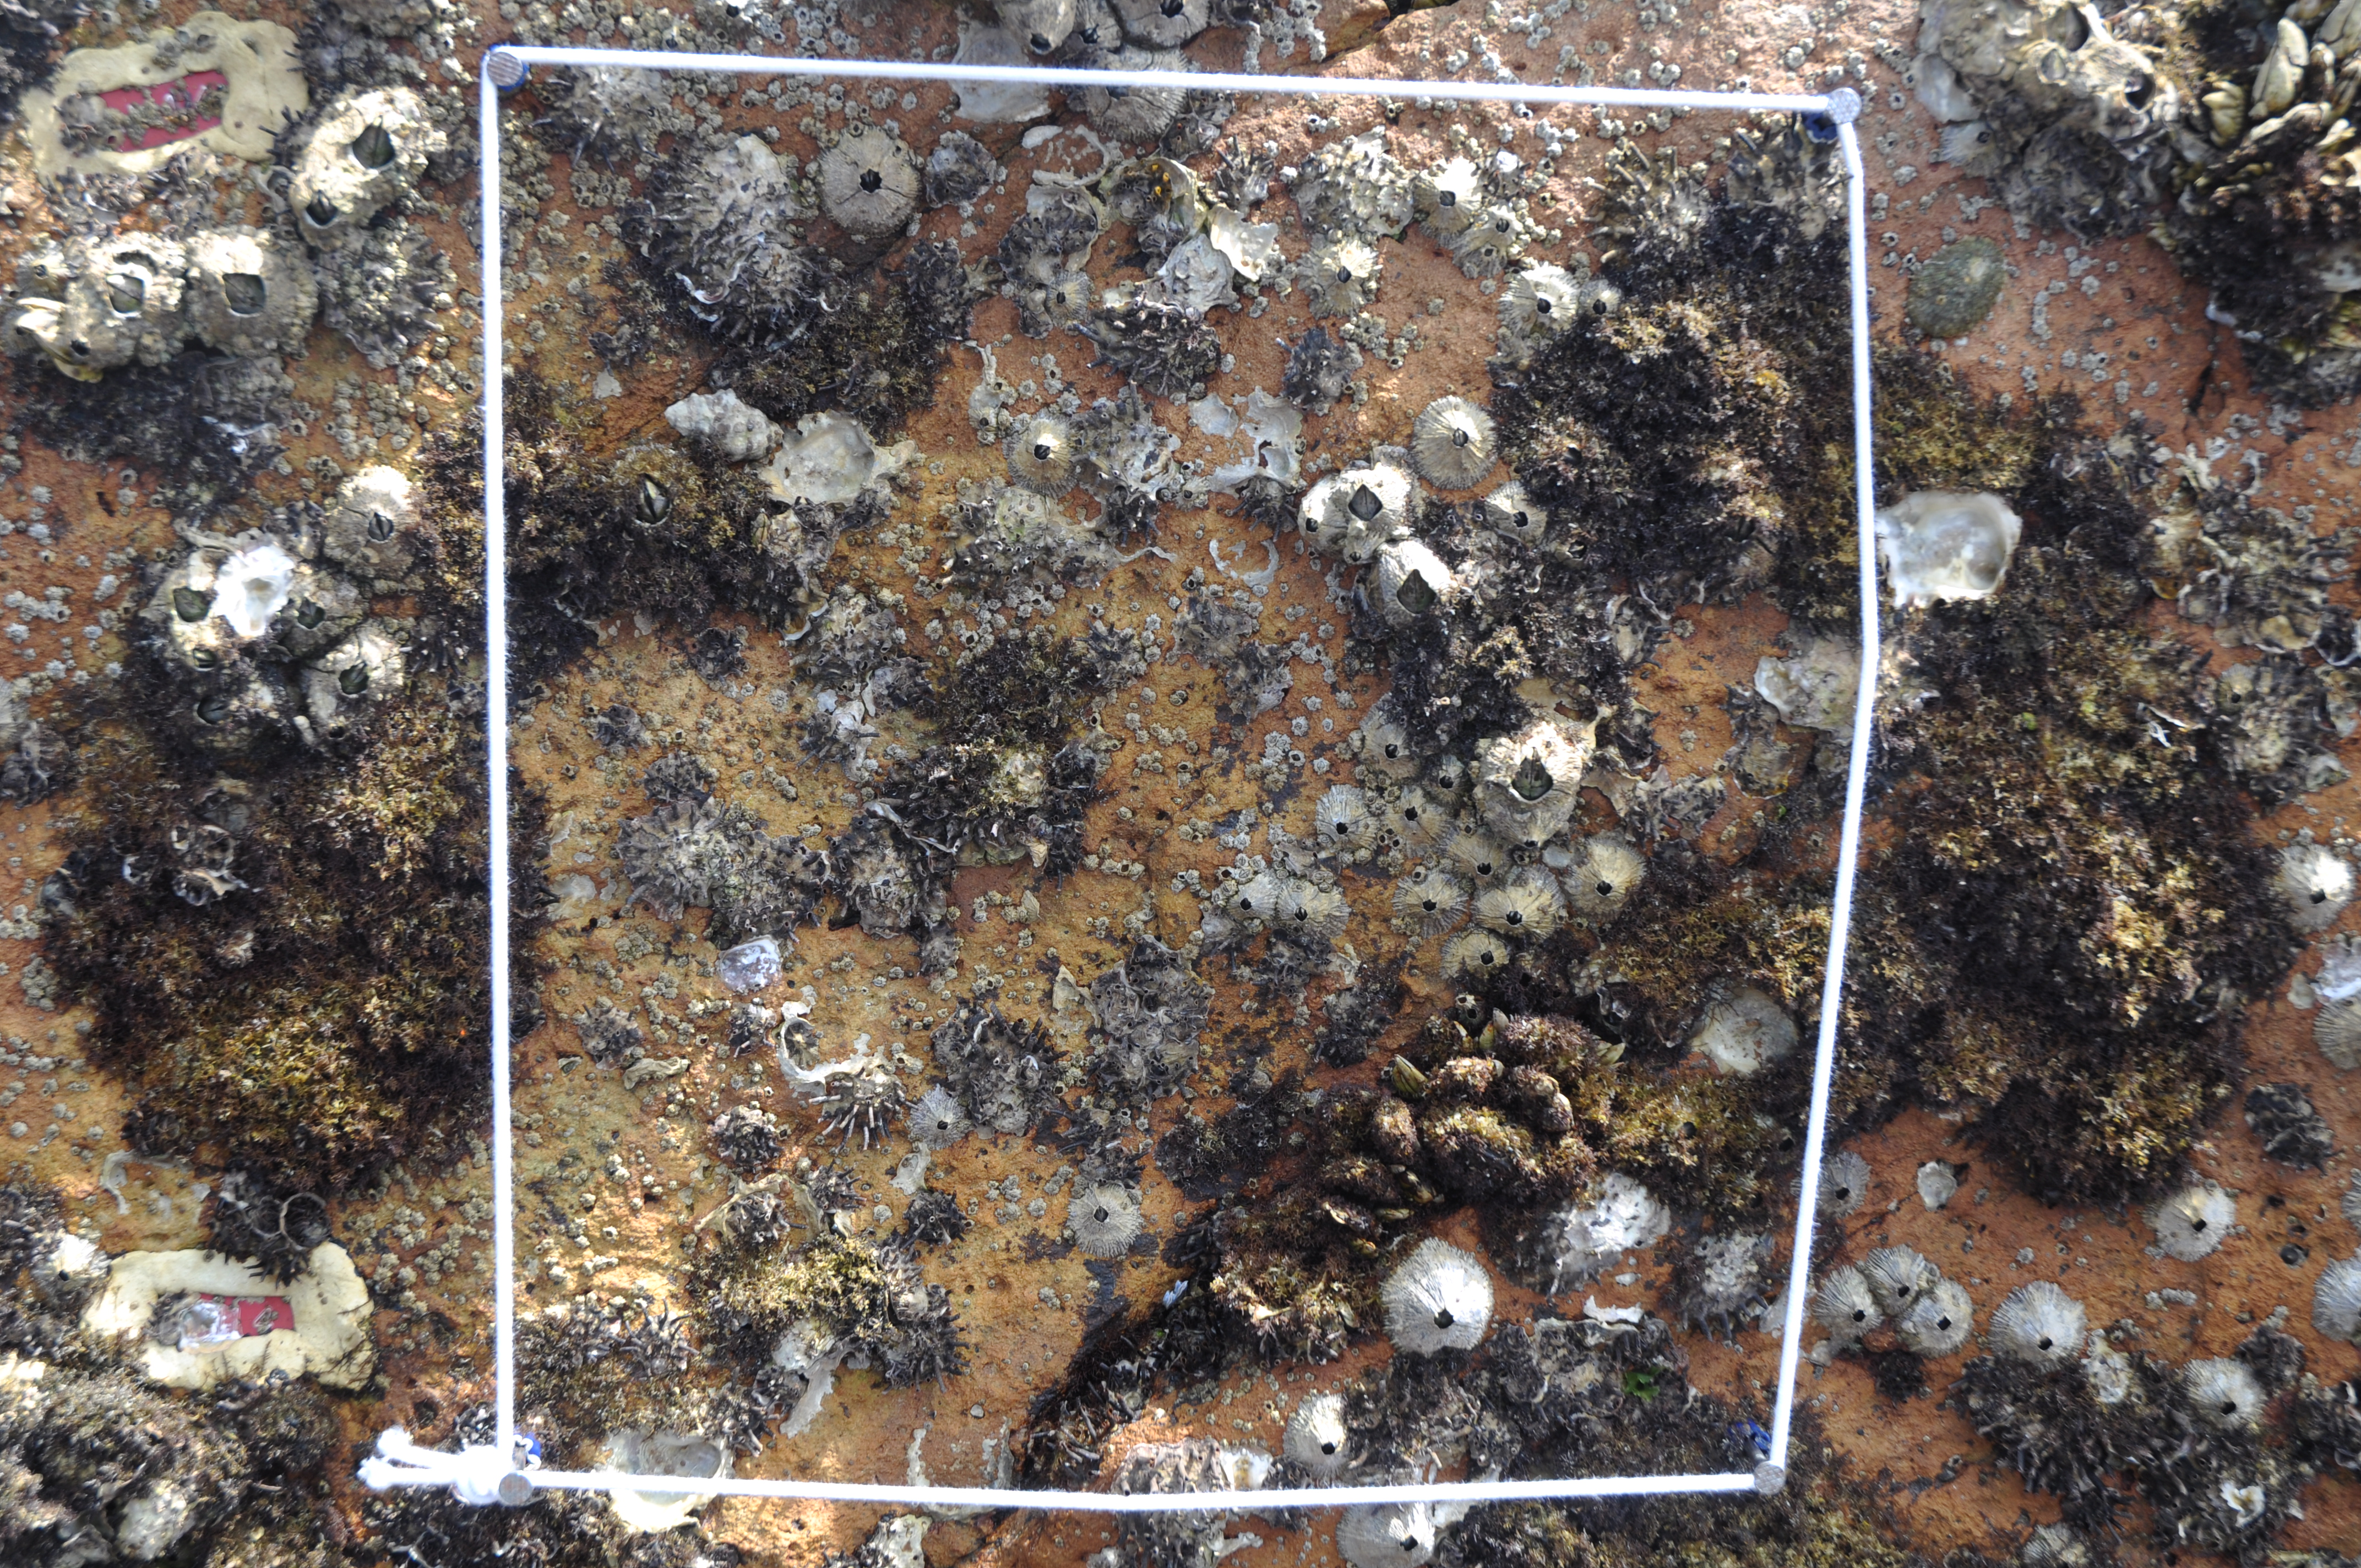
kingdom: Animalia
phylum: Arthropoda
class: Maxillopoda
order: Sessilia
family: Chthamalidae
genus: Chthamalus
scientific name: Chthamalus challengeri
